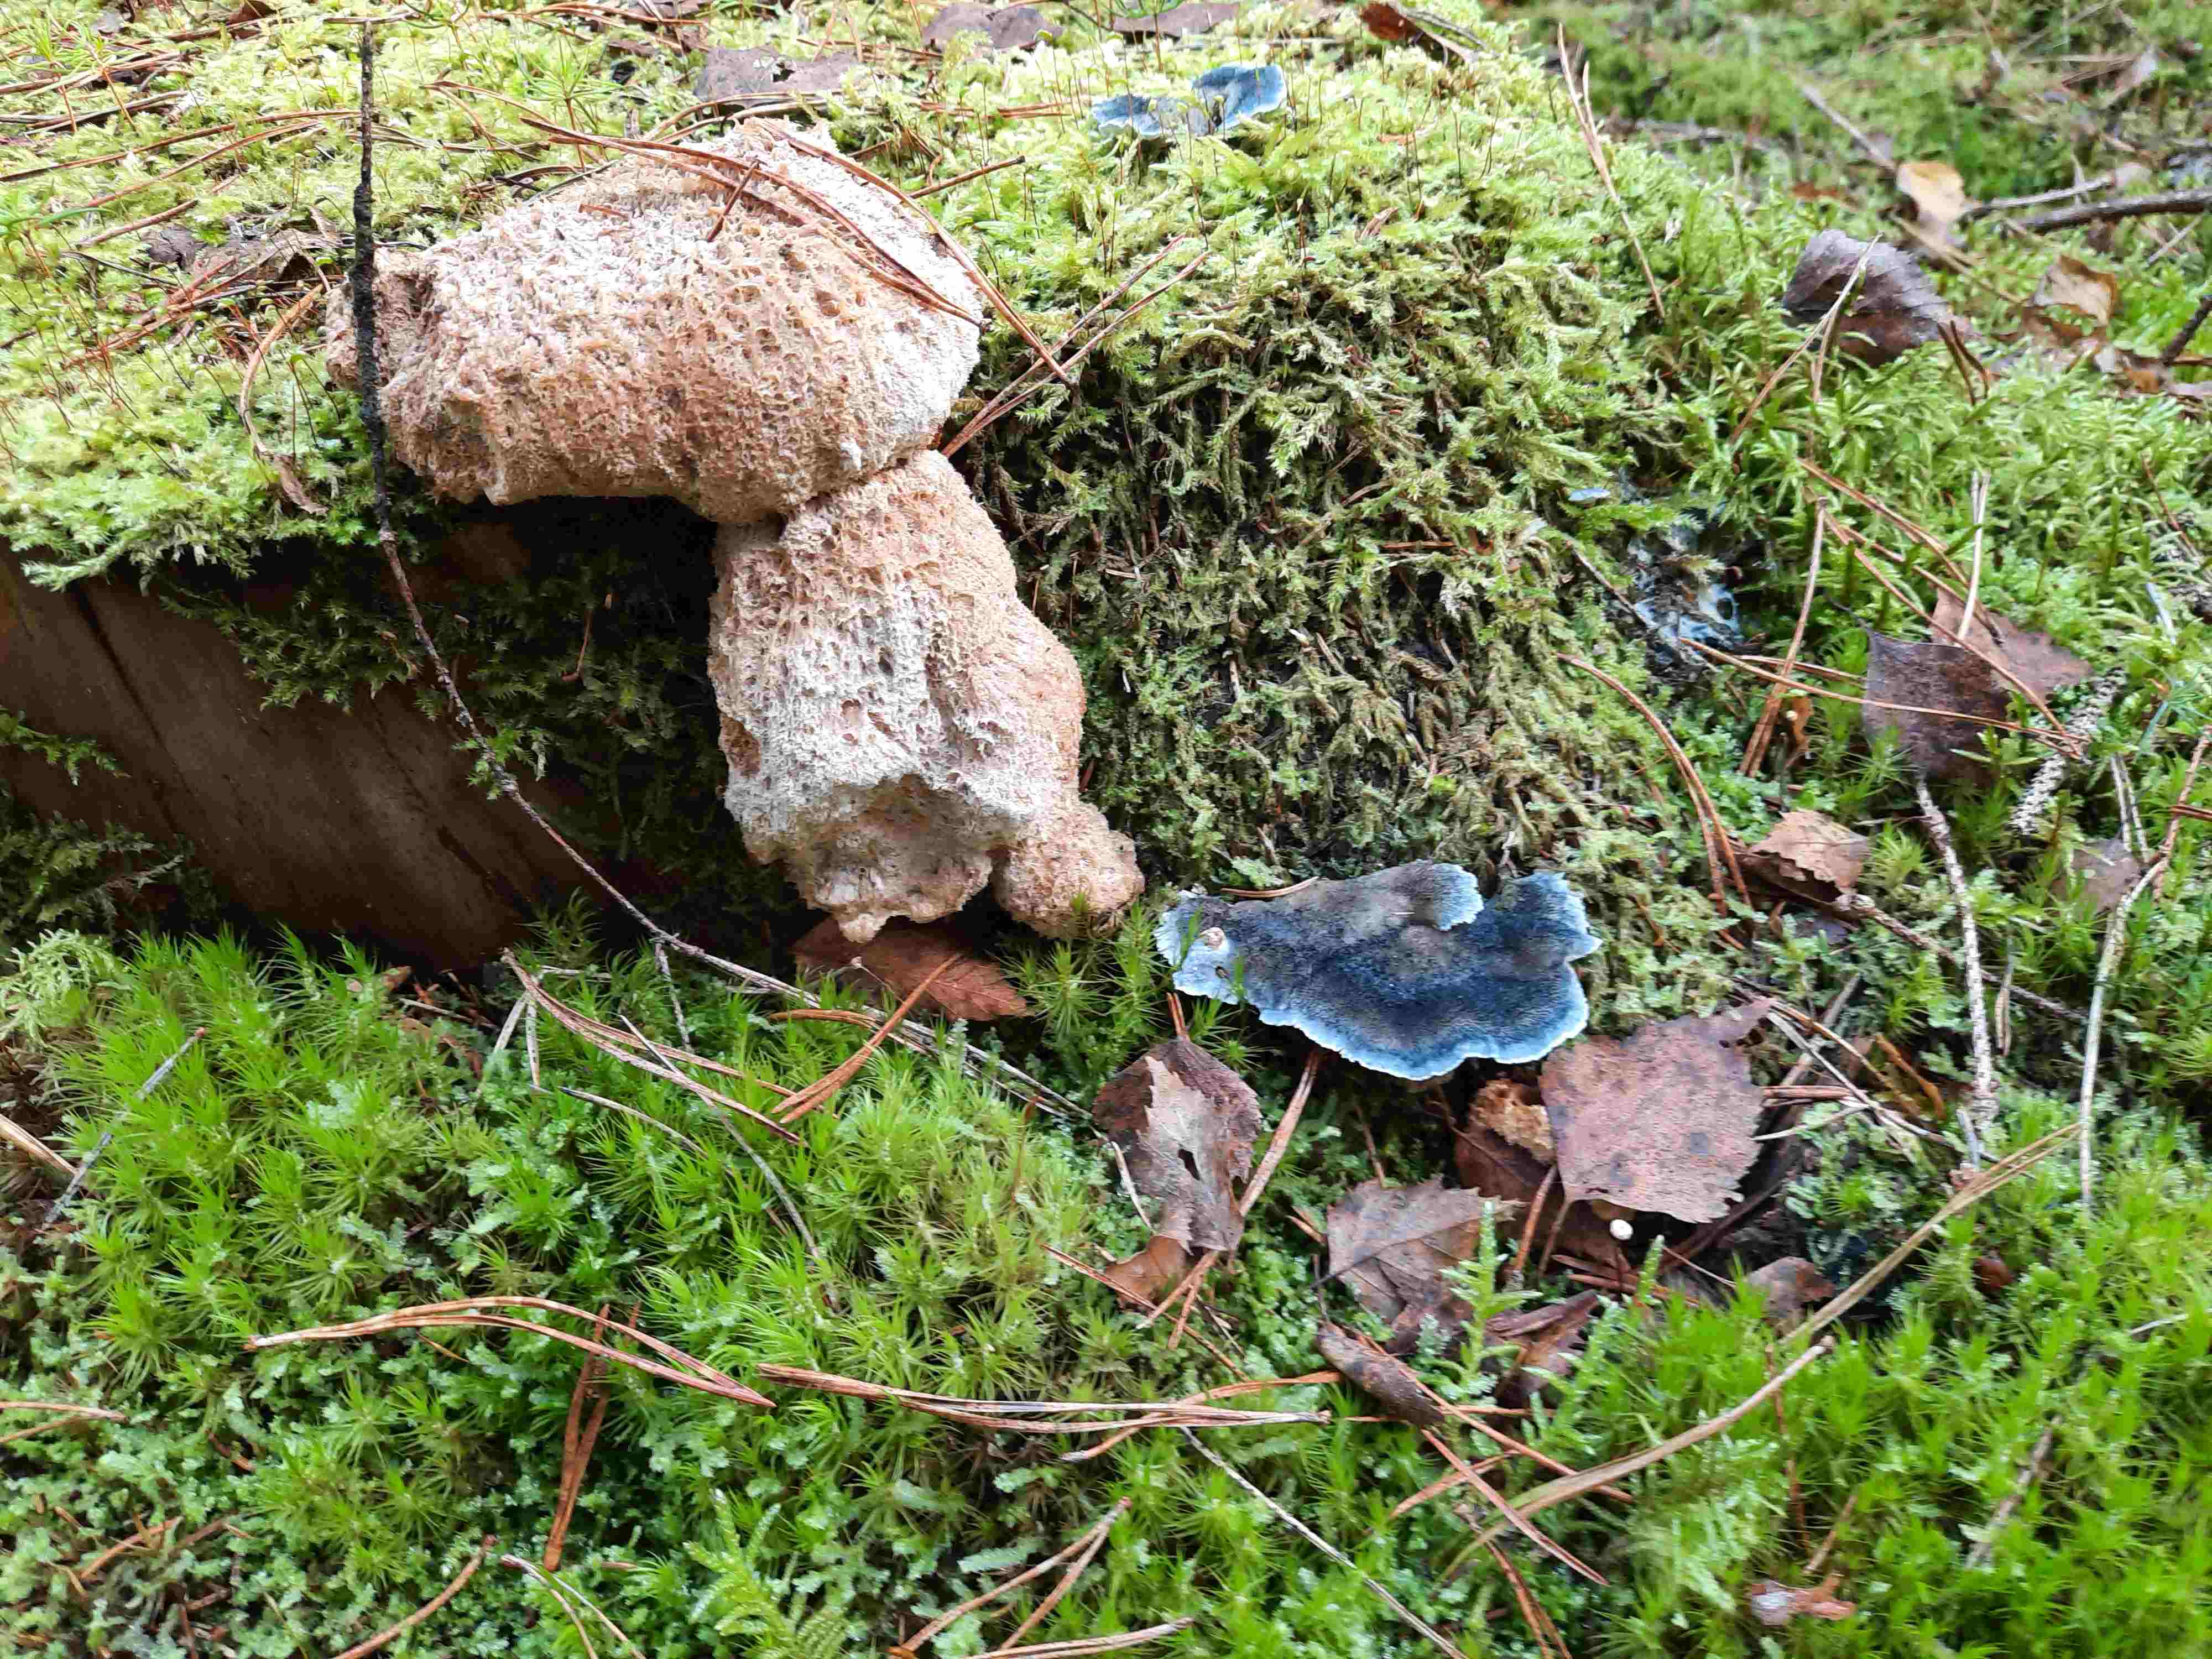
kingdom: Fungi
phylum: Basidiomycota
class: Agaricomycetes
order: Polyporales
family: Dacryobolaceae
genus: Postia
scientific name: Postia ptychogaster
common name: støvende kødporesvamp
